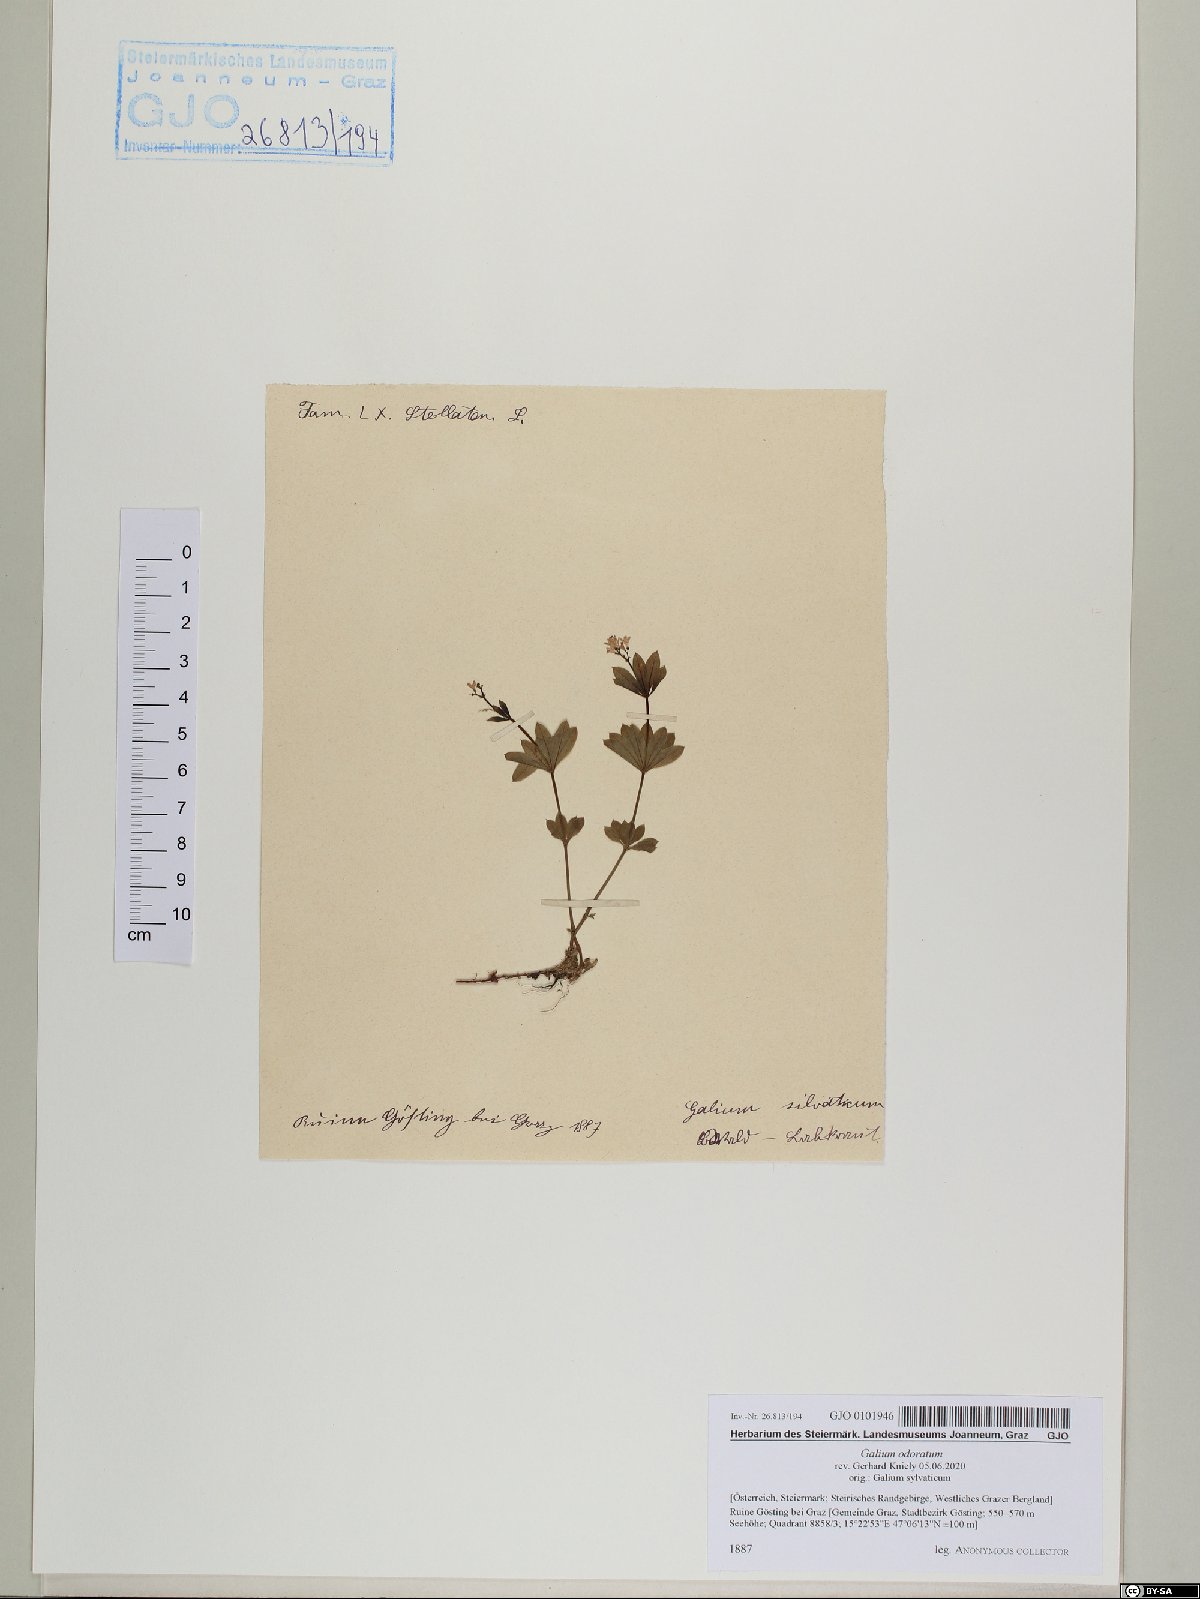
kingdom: Plantae
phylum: Tracheophyta
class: Magnoliopsida
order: Gentianales
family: Rubiaceae
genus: Galium
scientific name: Galium odoratum
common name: Sweet woodruff
